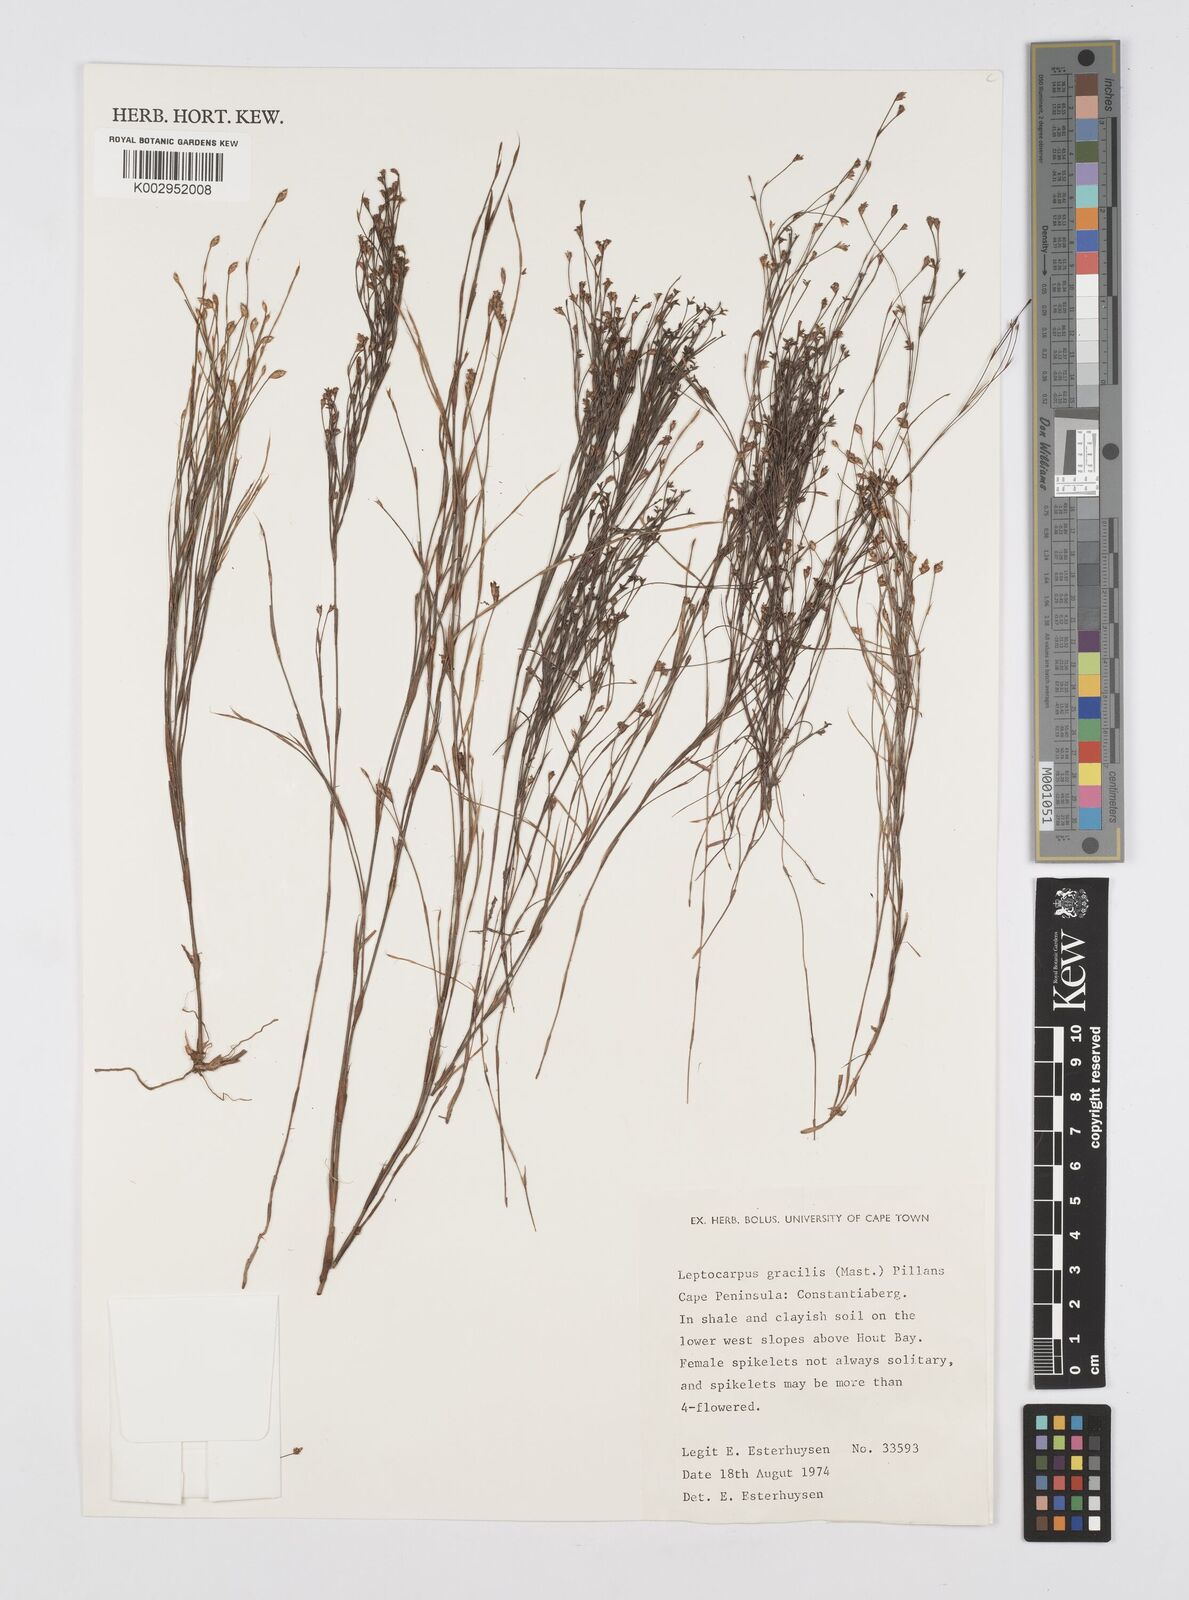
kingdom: Plantae
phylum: Tracheophyta
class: Liliopsida
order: Poales
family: Restionaceae
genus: Baloskion
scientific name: Baloskion gracile
